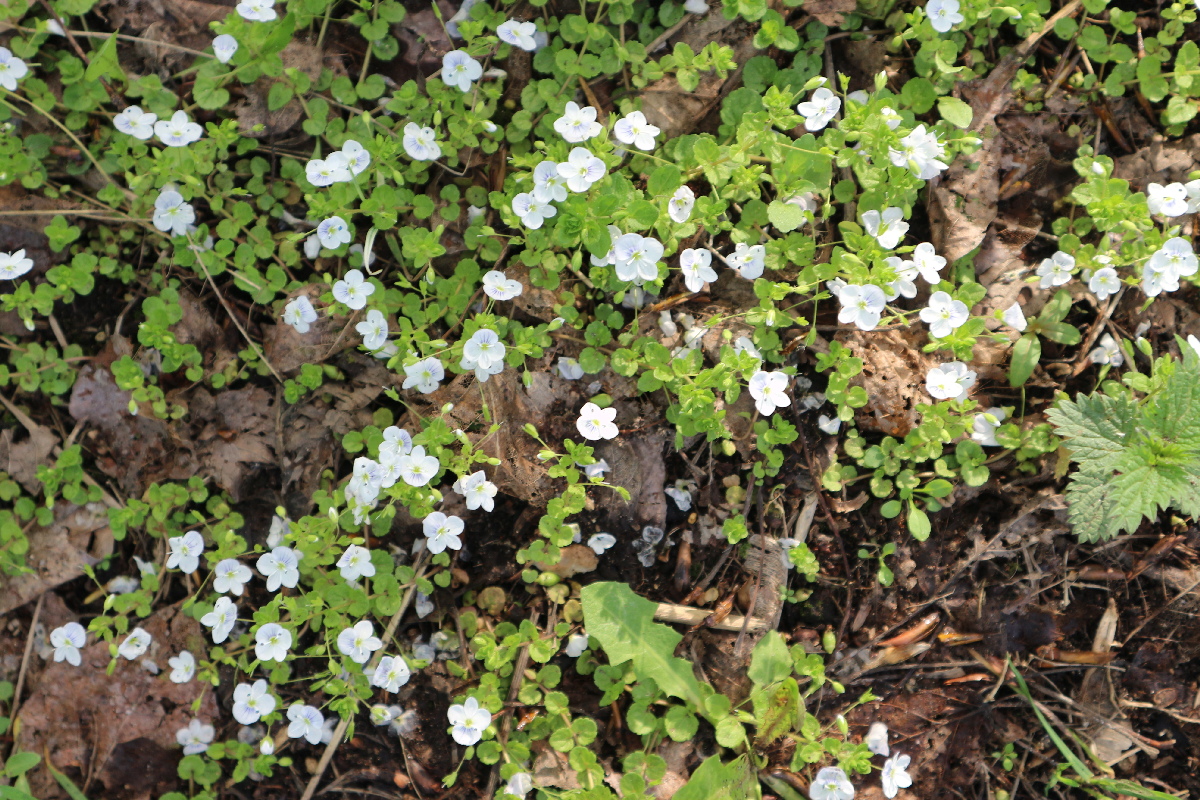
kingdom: Plantae
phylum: Tracheophyta
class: Magnoliopsida
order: Lamiales
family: Plantaginaceae
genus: Veronica
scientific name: Veronica filiformis
